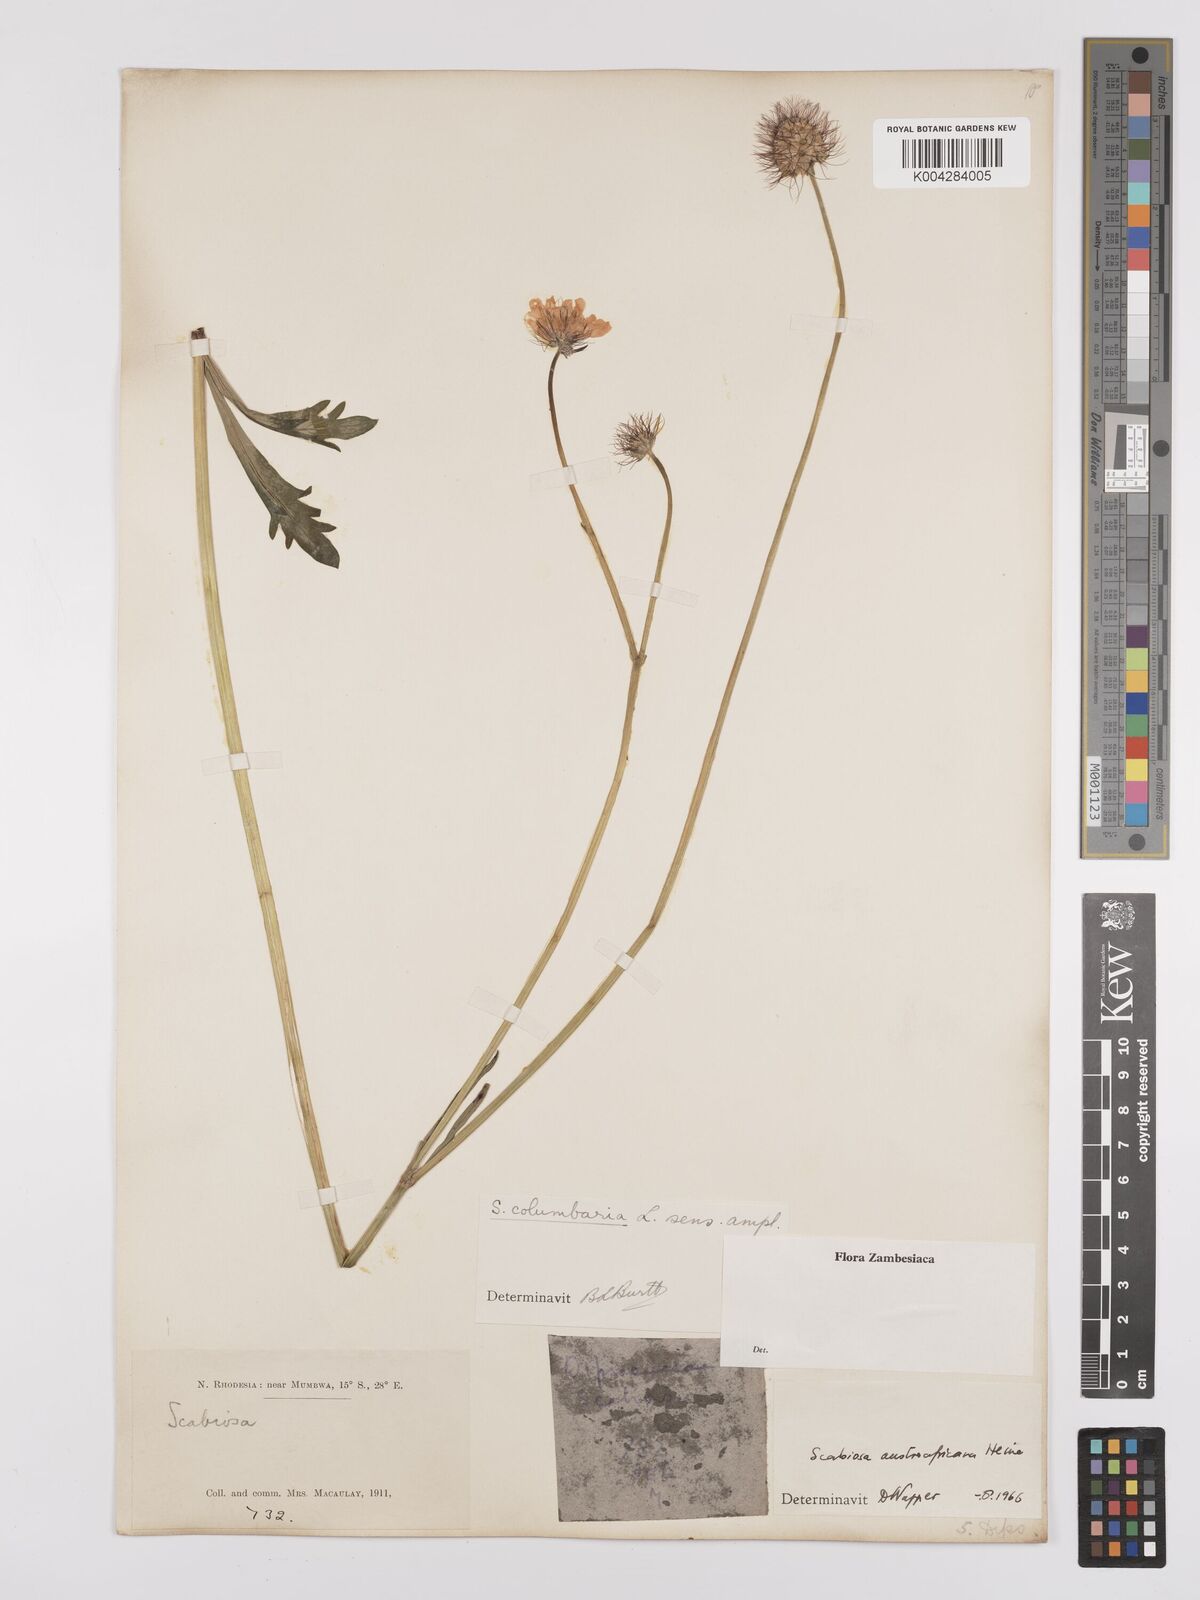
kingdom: Plantae
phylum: Tracheophyta
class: Magnoliopsida
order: Dipsacales
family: Caprifoliaceae
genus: Scabiosa
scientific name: Scabiosa austroafricana
